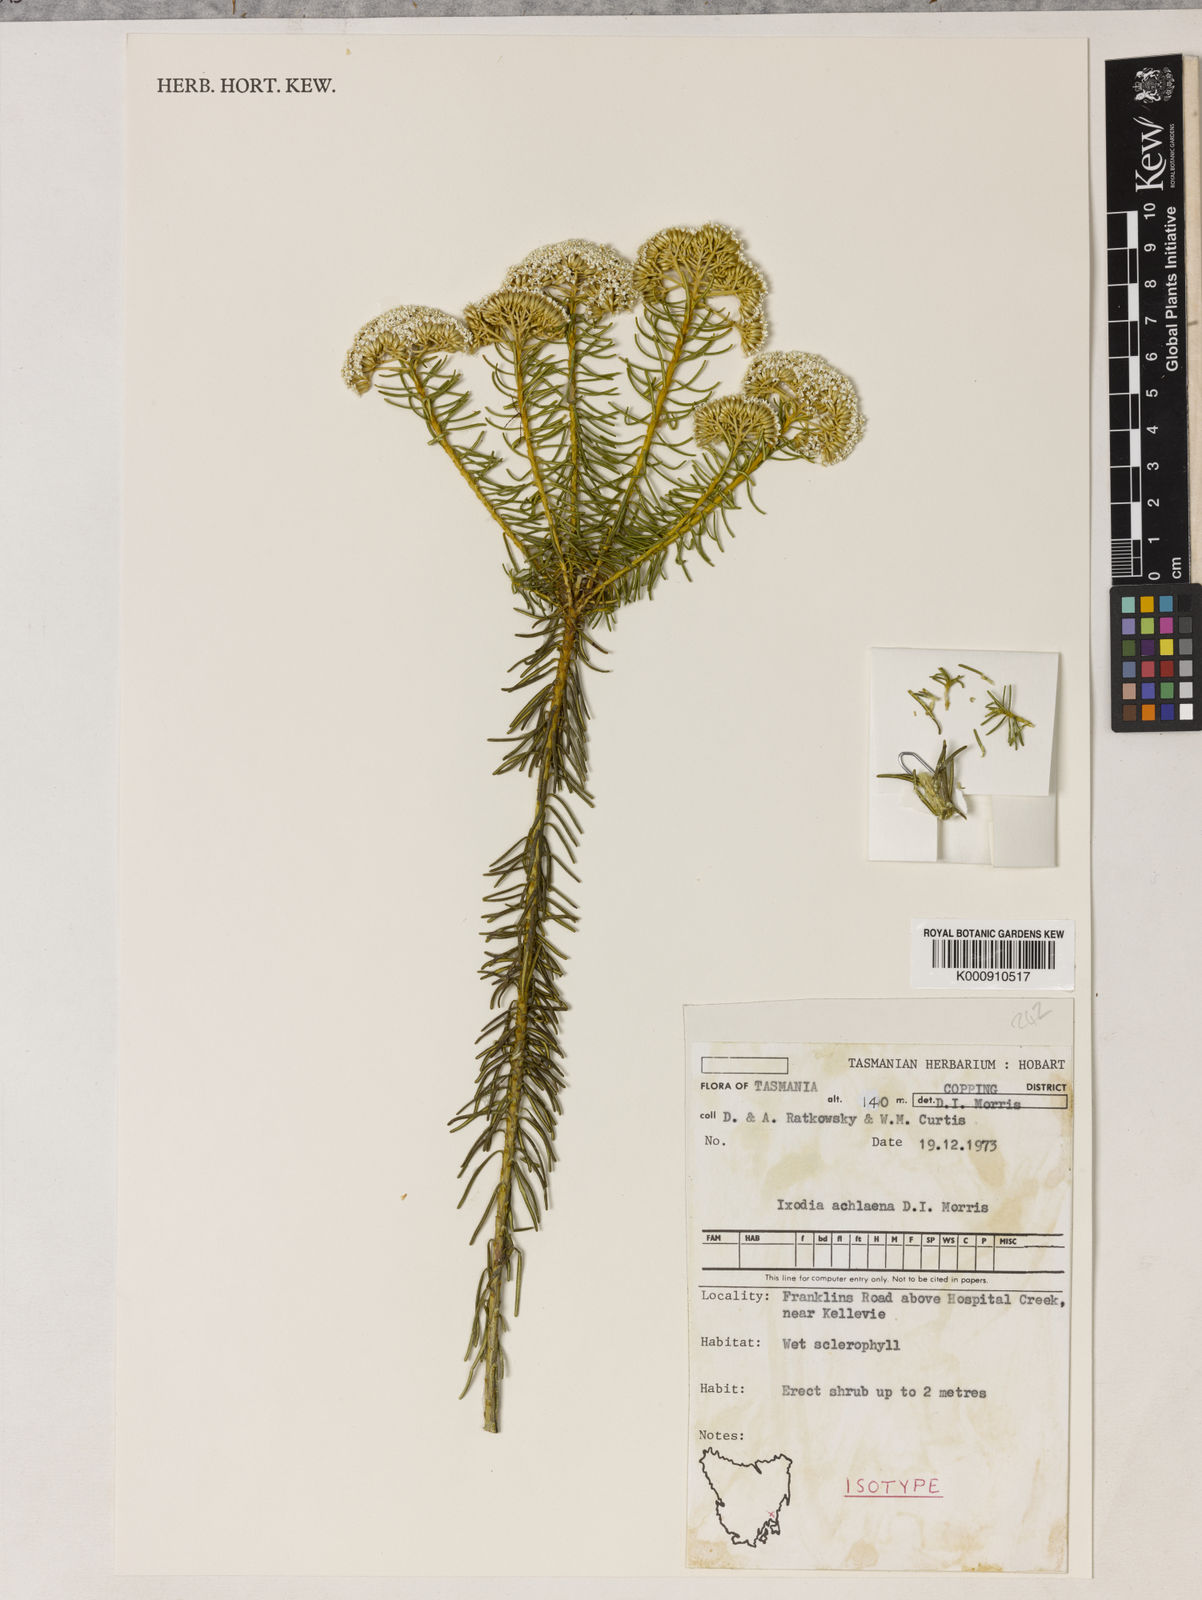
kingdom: Plantae
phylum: Tracheophyta
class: Magnoliopsida
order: Asterales
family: Asteraceae
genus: Odixia
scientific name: Odixia achlaena
